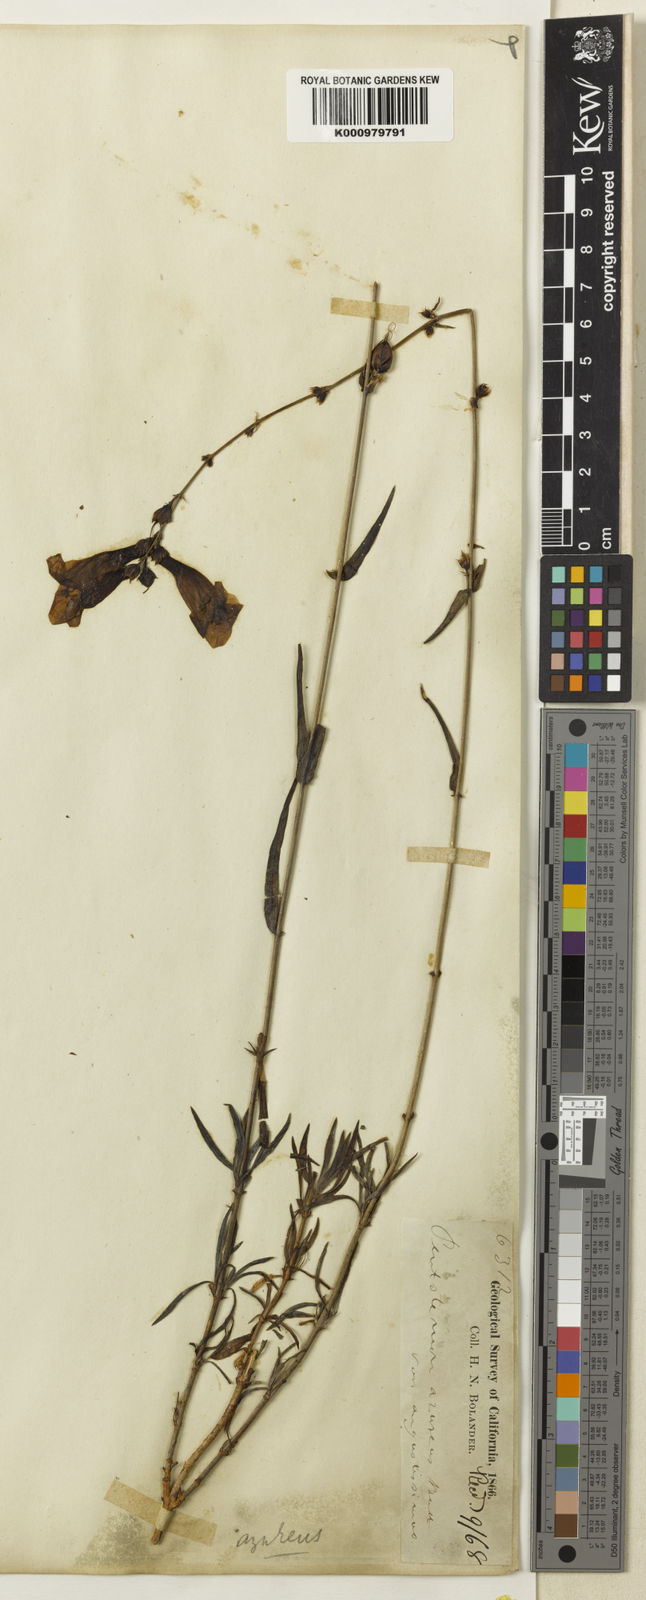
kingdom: Plantae
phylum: Tracheophyta
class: Magnoliopsida
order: Lamiales
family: Plantaginaceae
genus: Penstemon
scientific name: Penstemon azureus
